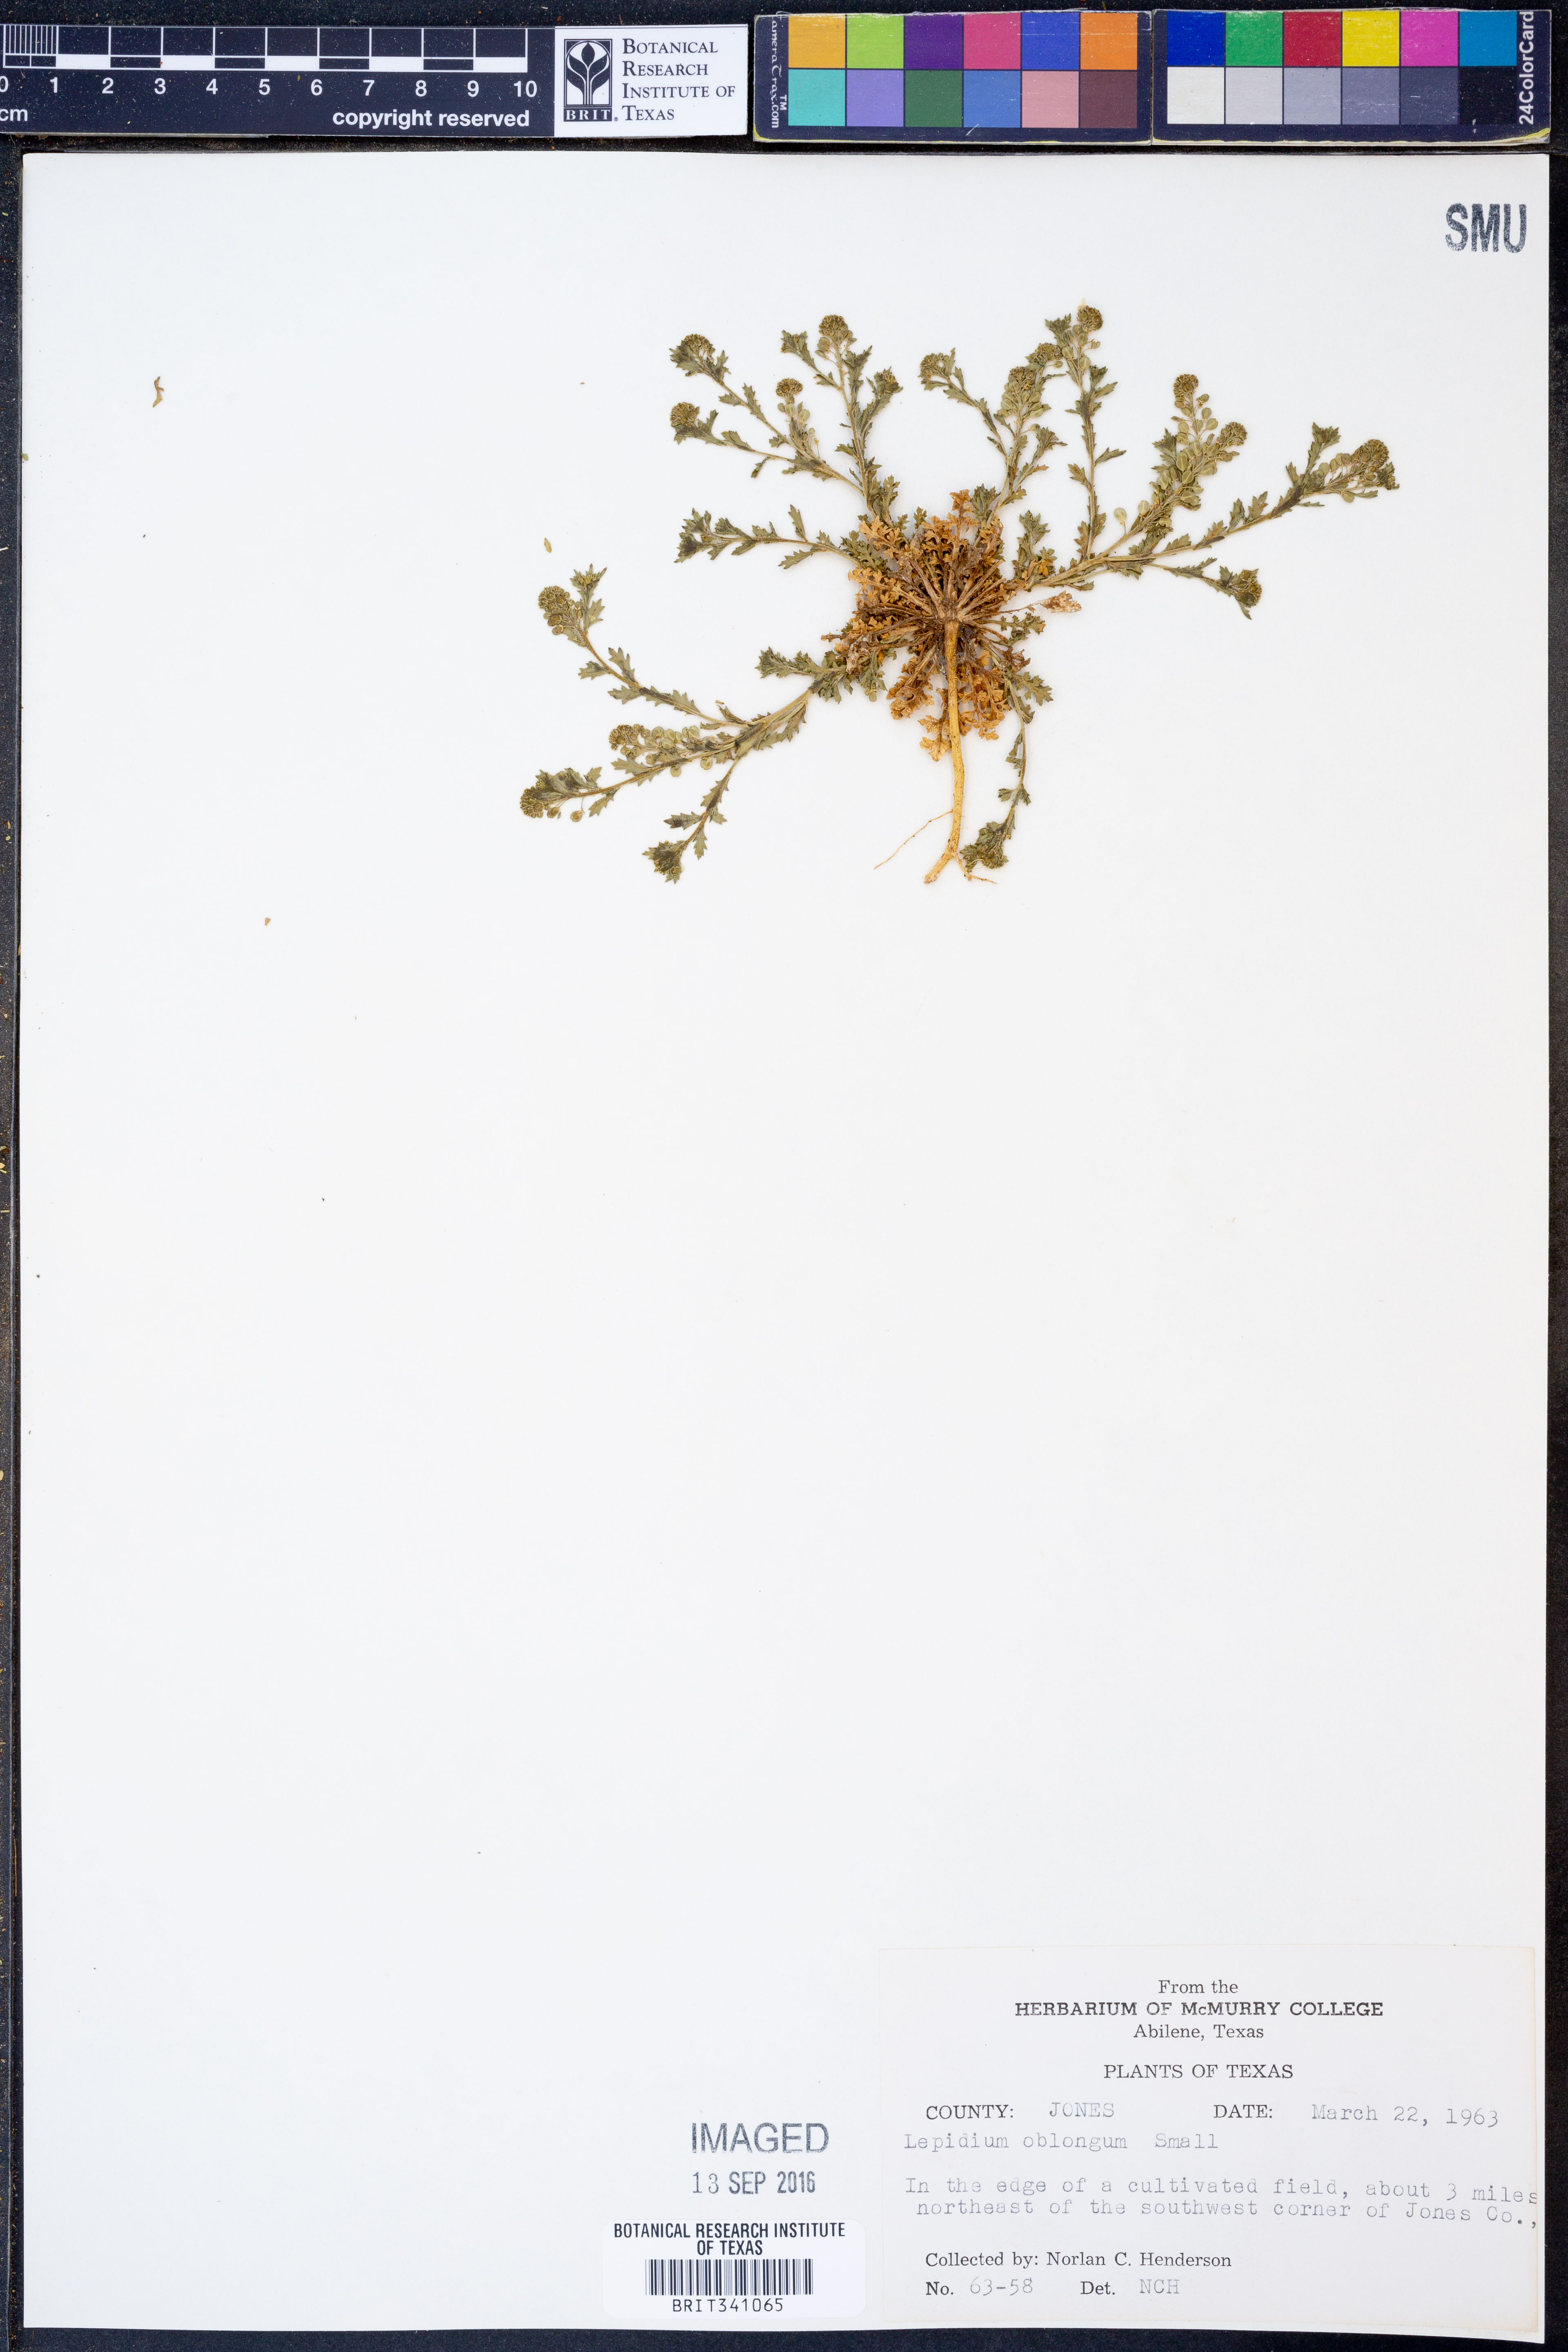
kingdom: Plantae
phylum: Tracheophyta
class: Magnoliopsida
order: Brassicales
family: Brassicaceae
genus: Lepidium
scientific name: Lepidium oblongum
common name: Veiny pepperweed
